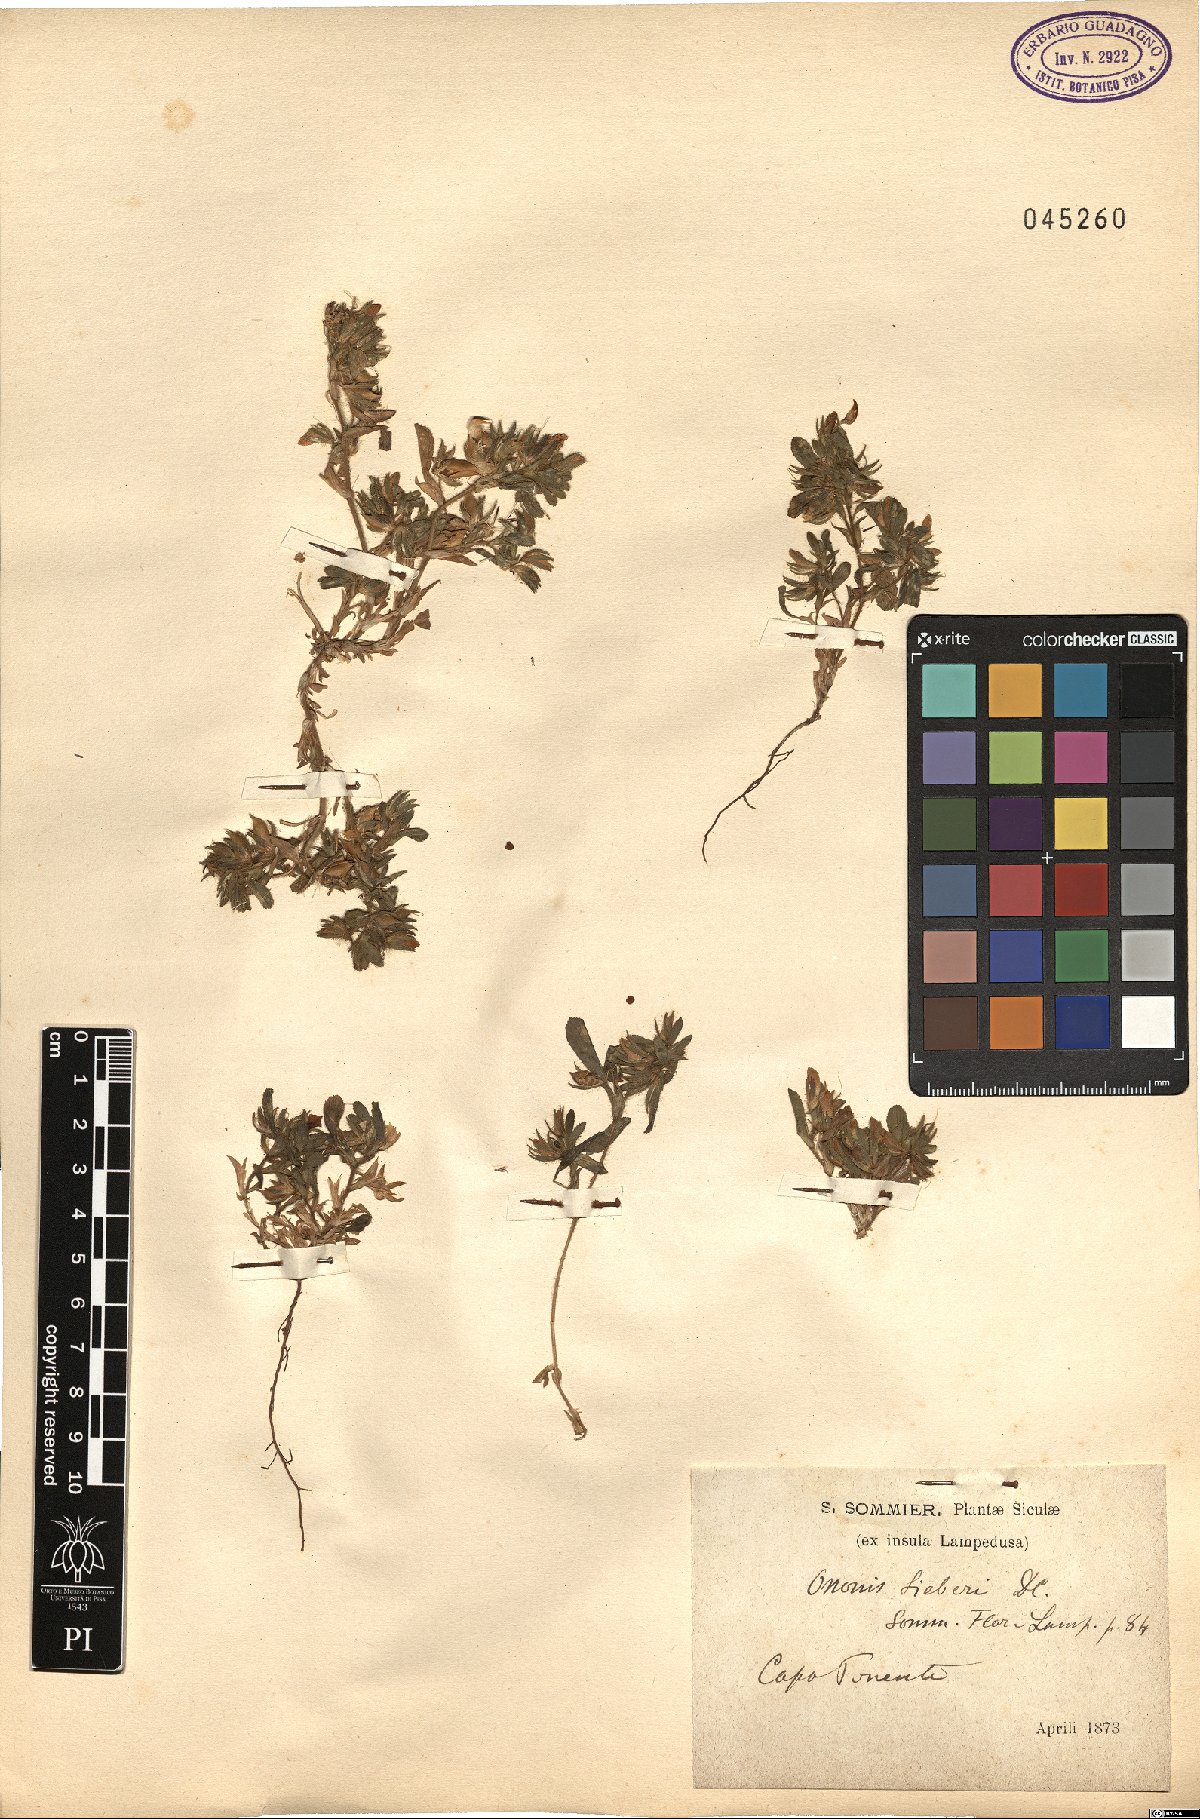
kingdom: Plantae
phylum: Tracheophyta
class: Magnoliopsida
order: Fabales
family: Fabaceae
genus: Ononis
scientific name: Ononis sieberi
